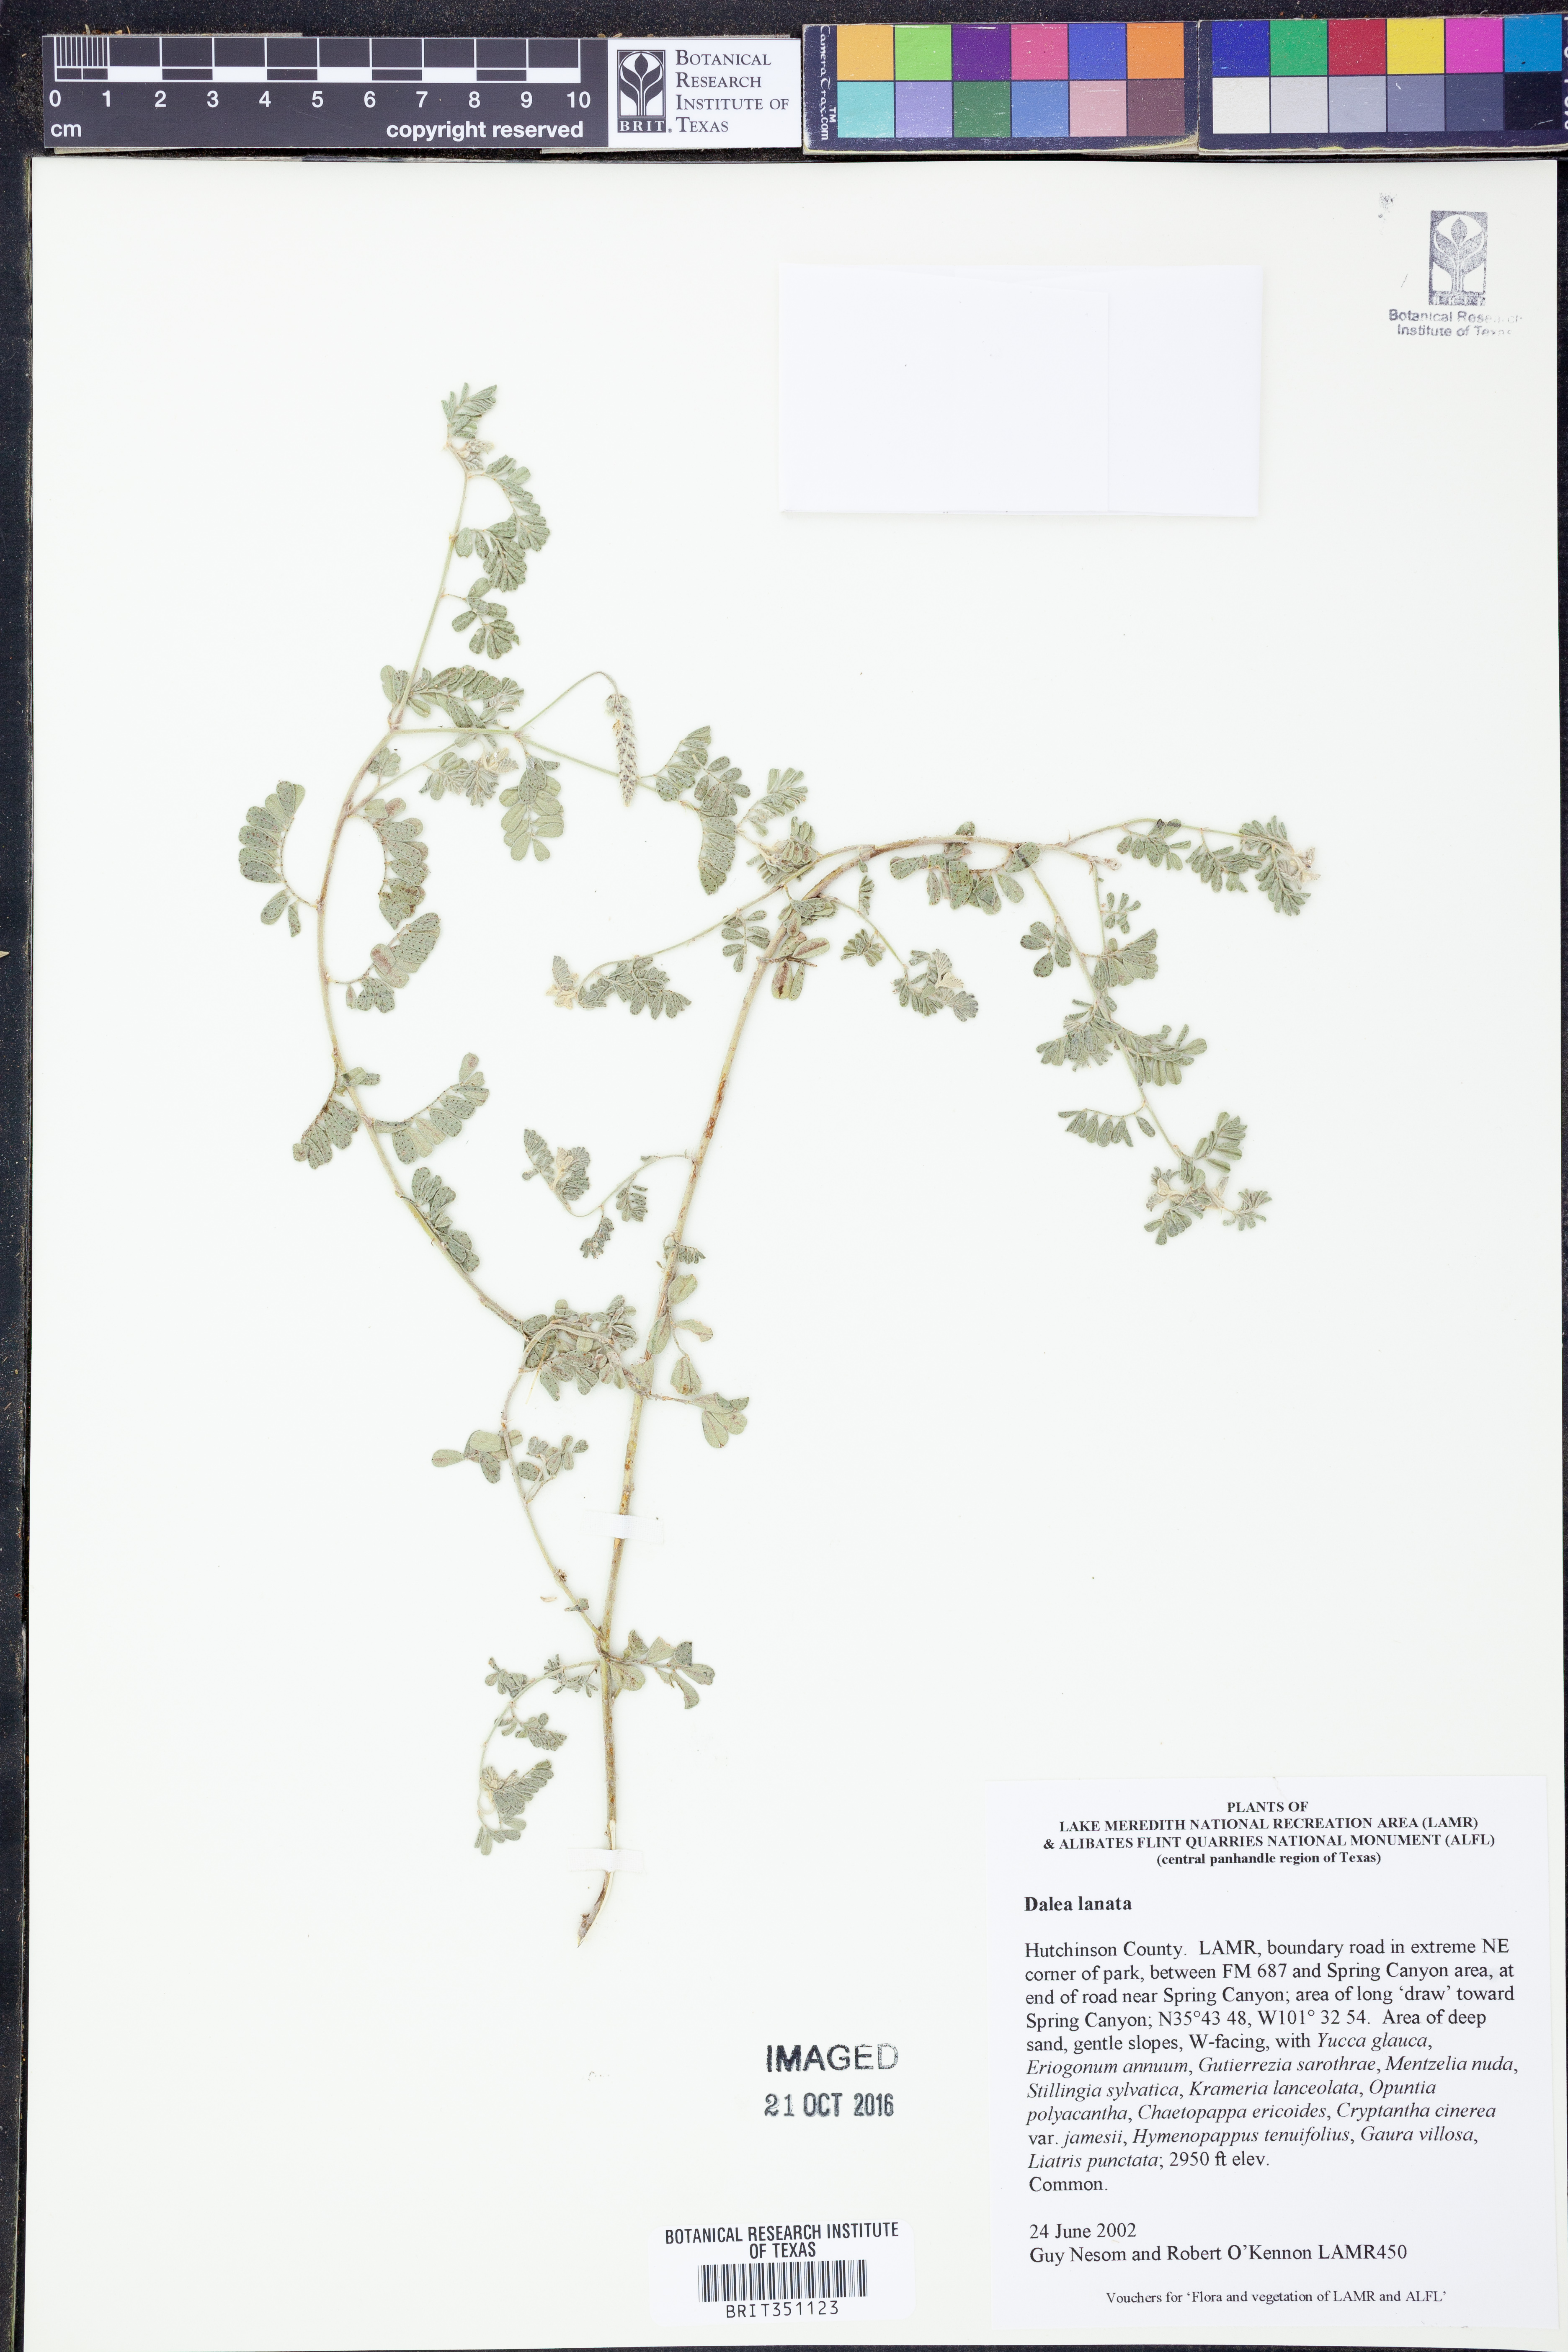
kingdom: Plantae
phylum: Tracheophyta
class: Magnoliopsida
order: Fabales
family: Fabaceae
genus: Dalea
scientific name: Dalea lanata
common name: Woolly dalea
